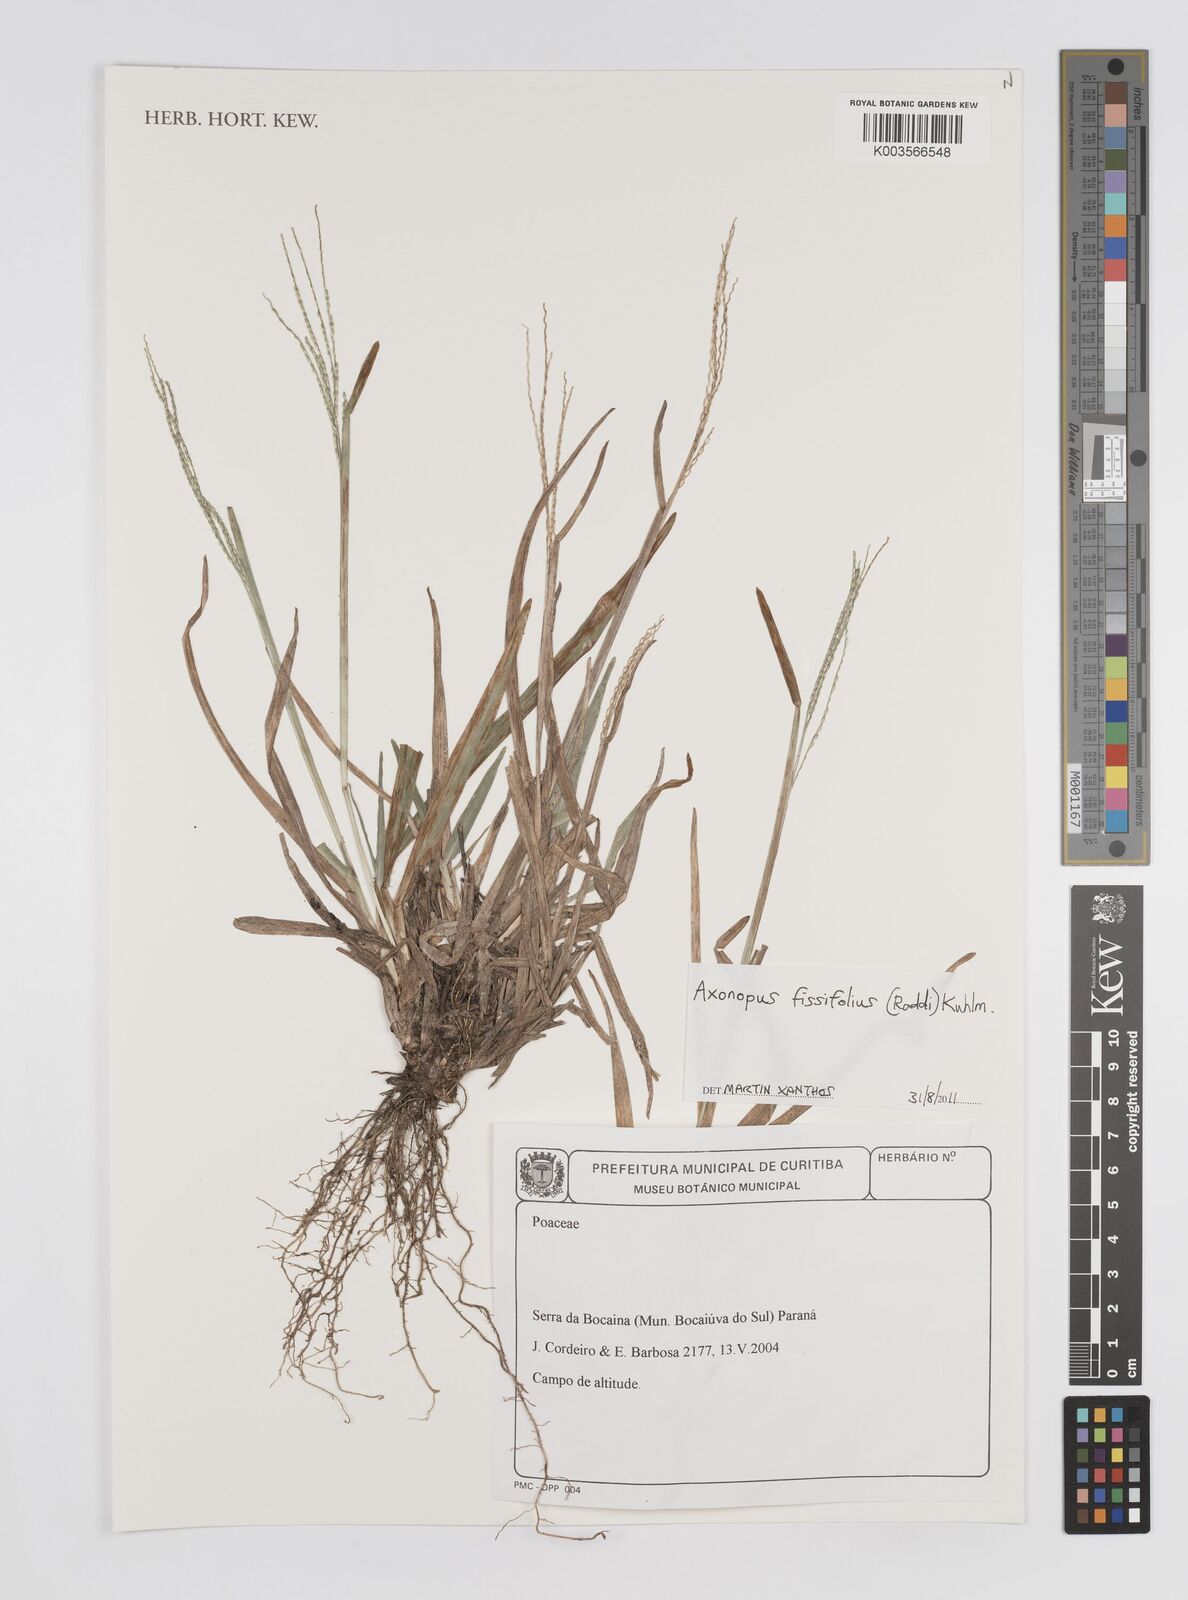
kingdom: Plantae
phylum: Tracheophyta
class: Liliopsida
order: Poales
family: Poaceae
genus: Axonopus
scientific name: Axonopus fissifolius
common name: Common carpetgrass
